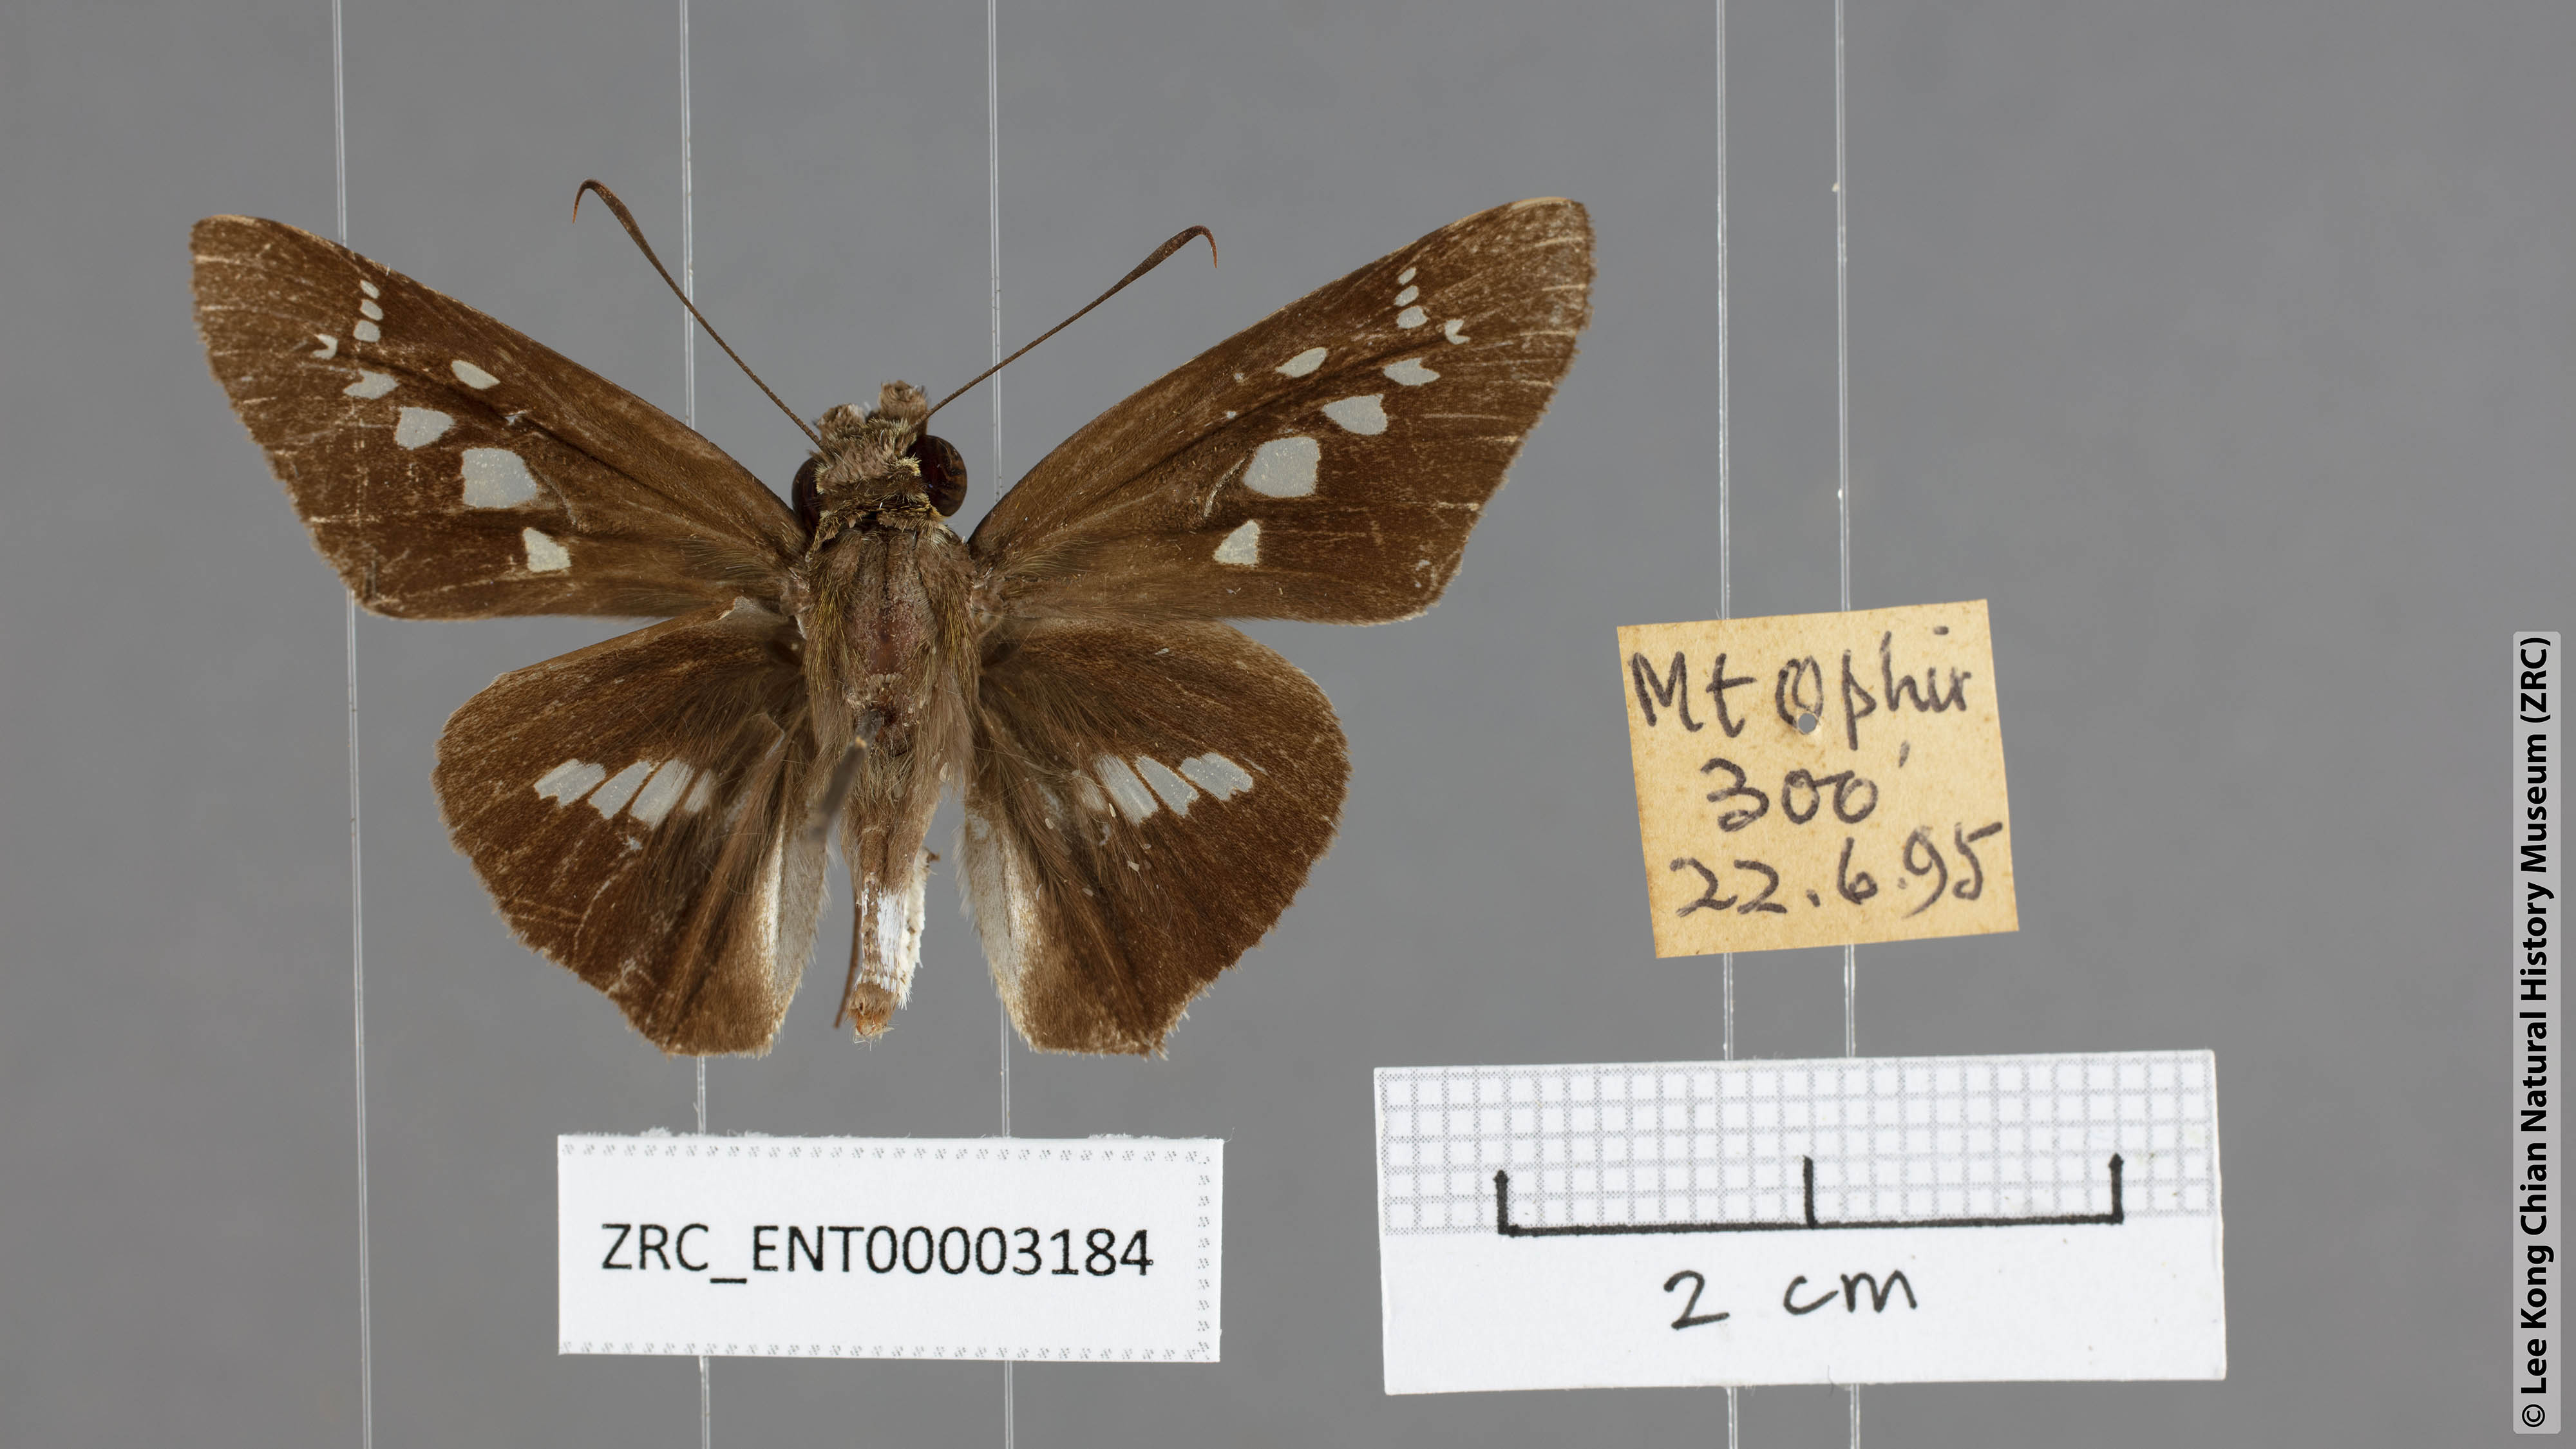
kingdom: Animalia
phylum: Arthropoda
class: Insecta
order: Lepidoptera
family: Hesperiidae
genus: Eetion
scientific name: Eetion elia
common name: White spotted palmer
